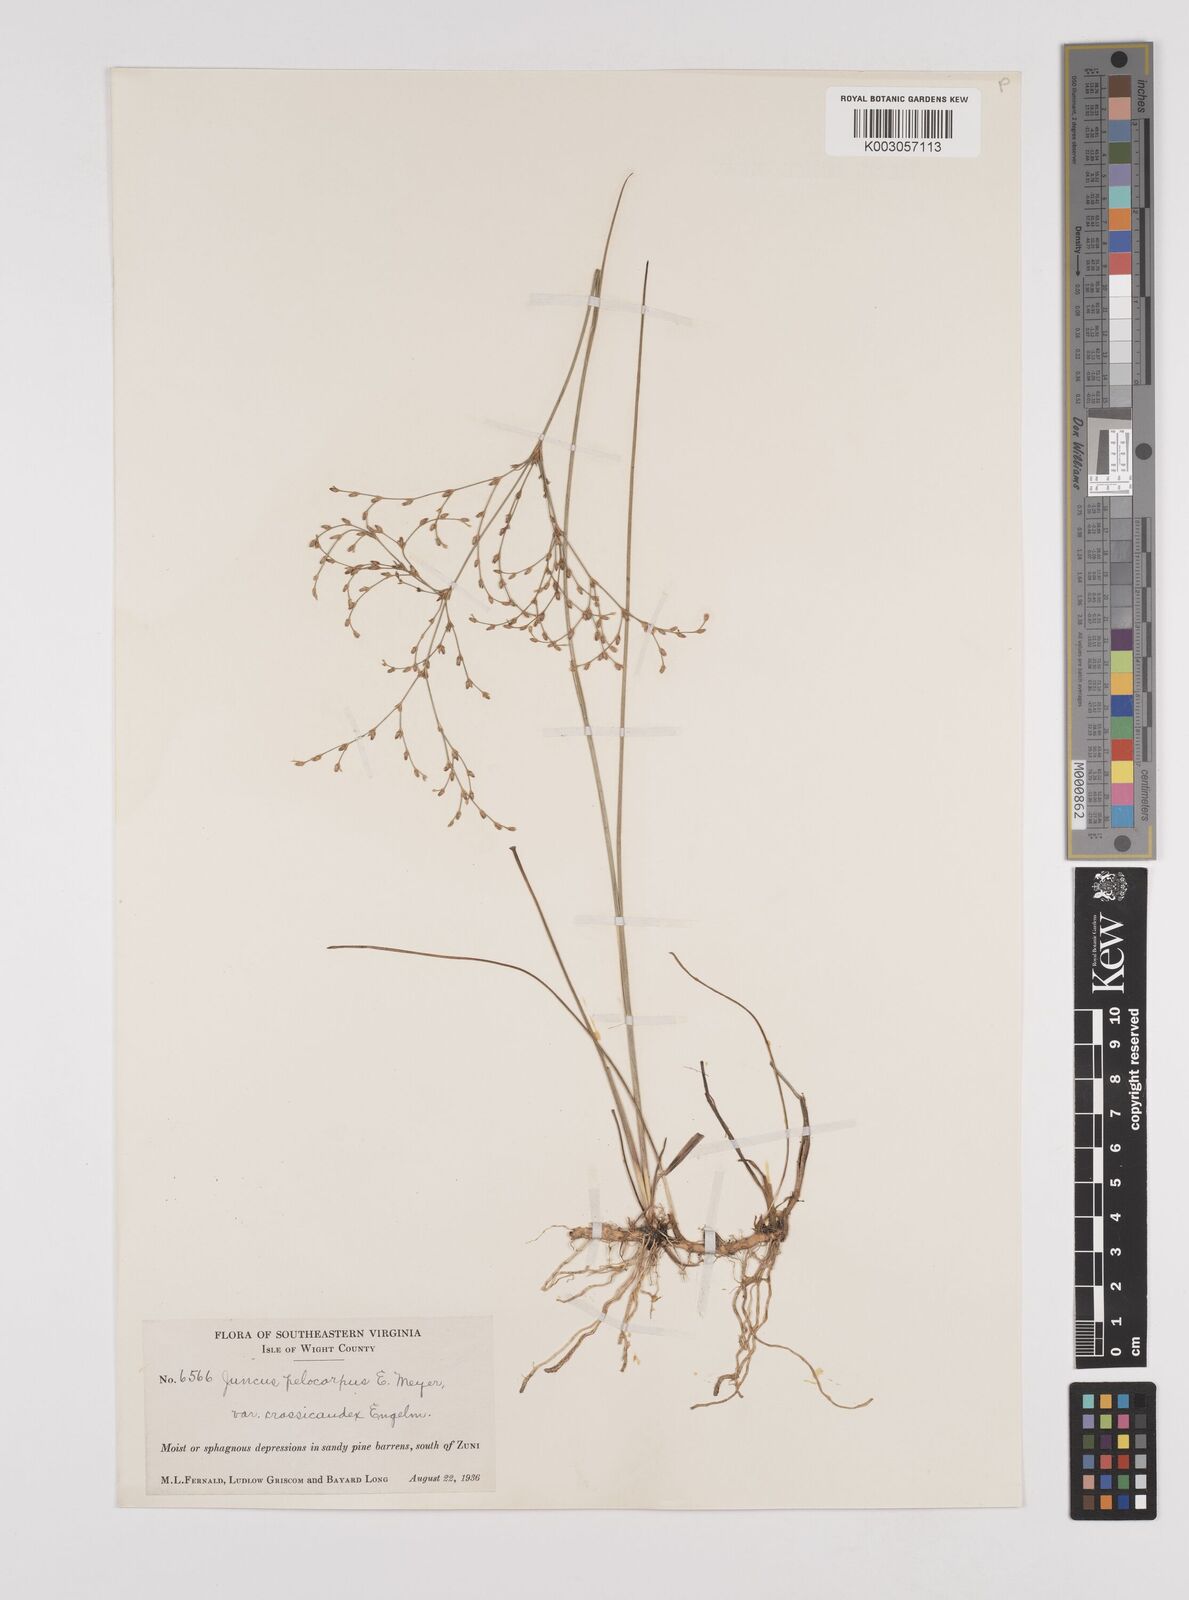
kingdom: Plantae
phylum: Tracheophyta
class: Liliopsida
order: Poales
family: Juncaceae
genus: Juncus
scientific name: Juncus abortivus
